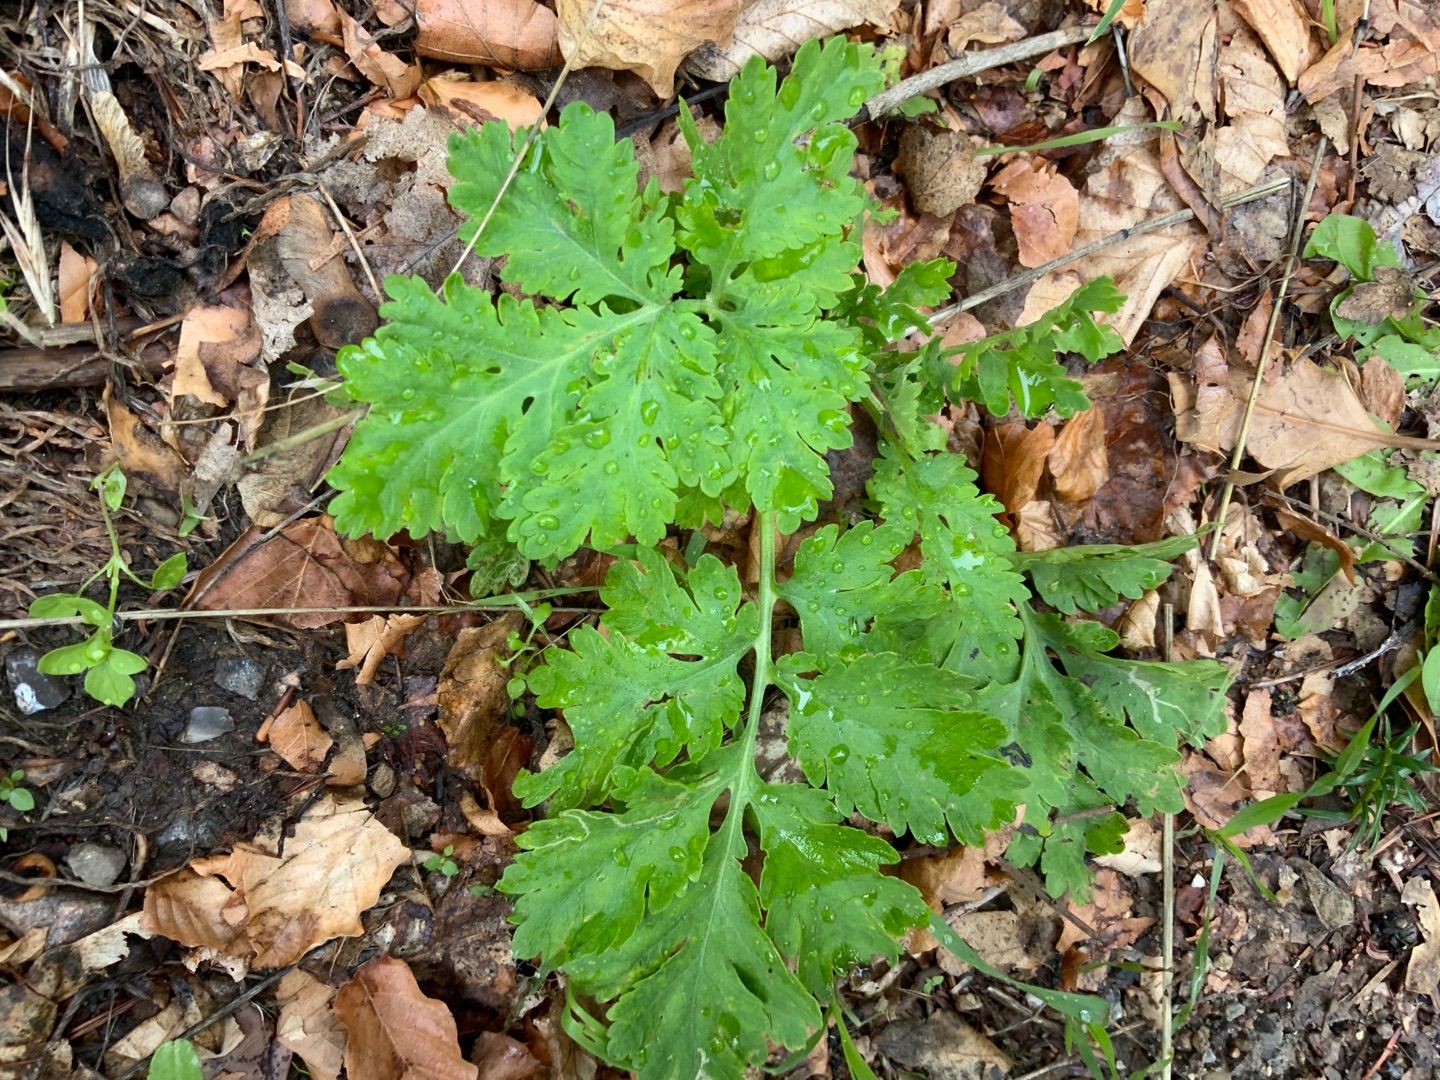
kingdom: Plantae
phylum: Tracheophyta
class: Magnoliopsida
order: Asterales
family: Asteraceae
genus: Tanacetum
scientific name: Tanacetum parthenium
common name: Matrem
